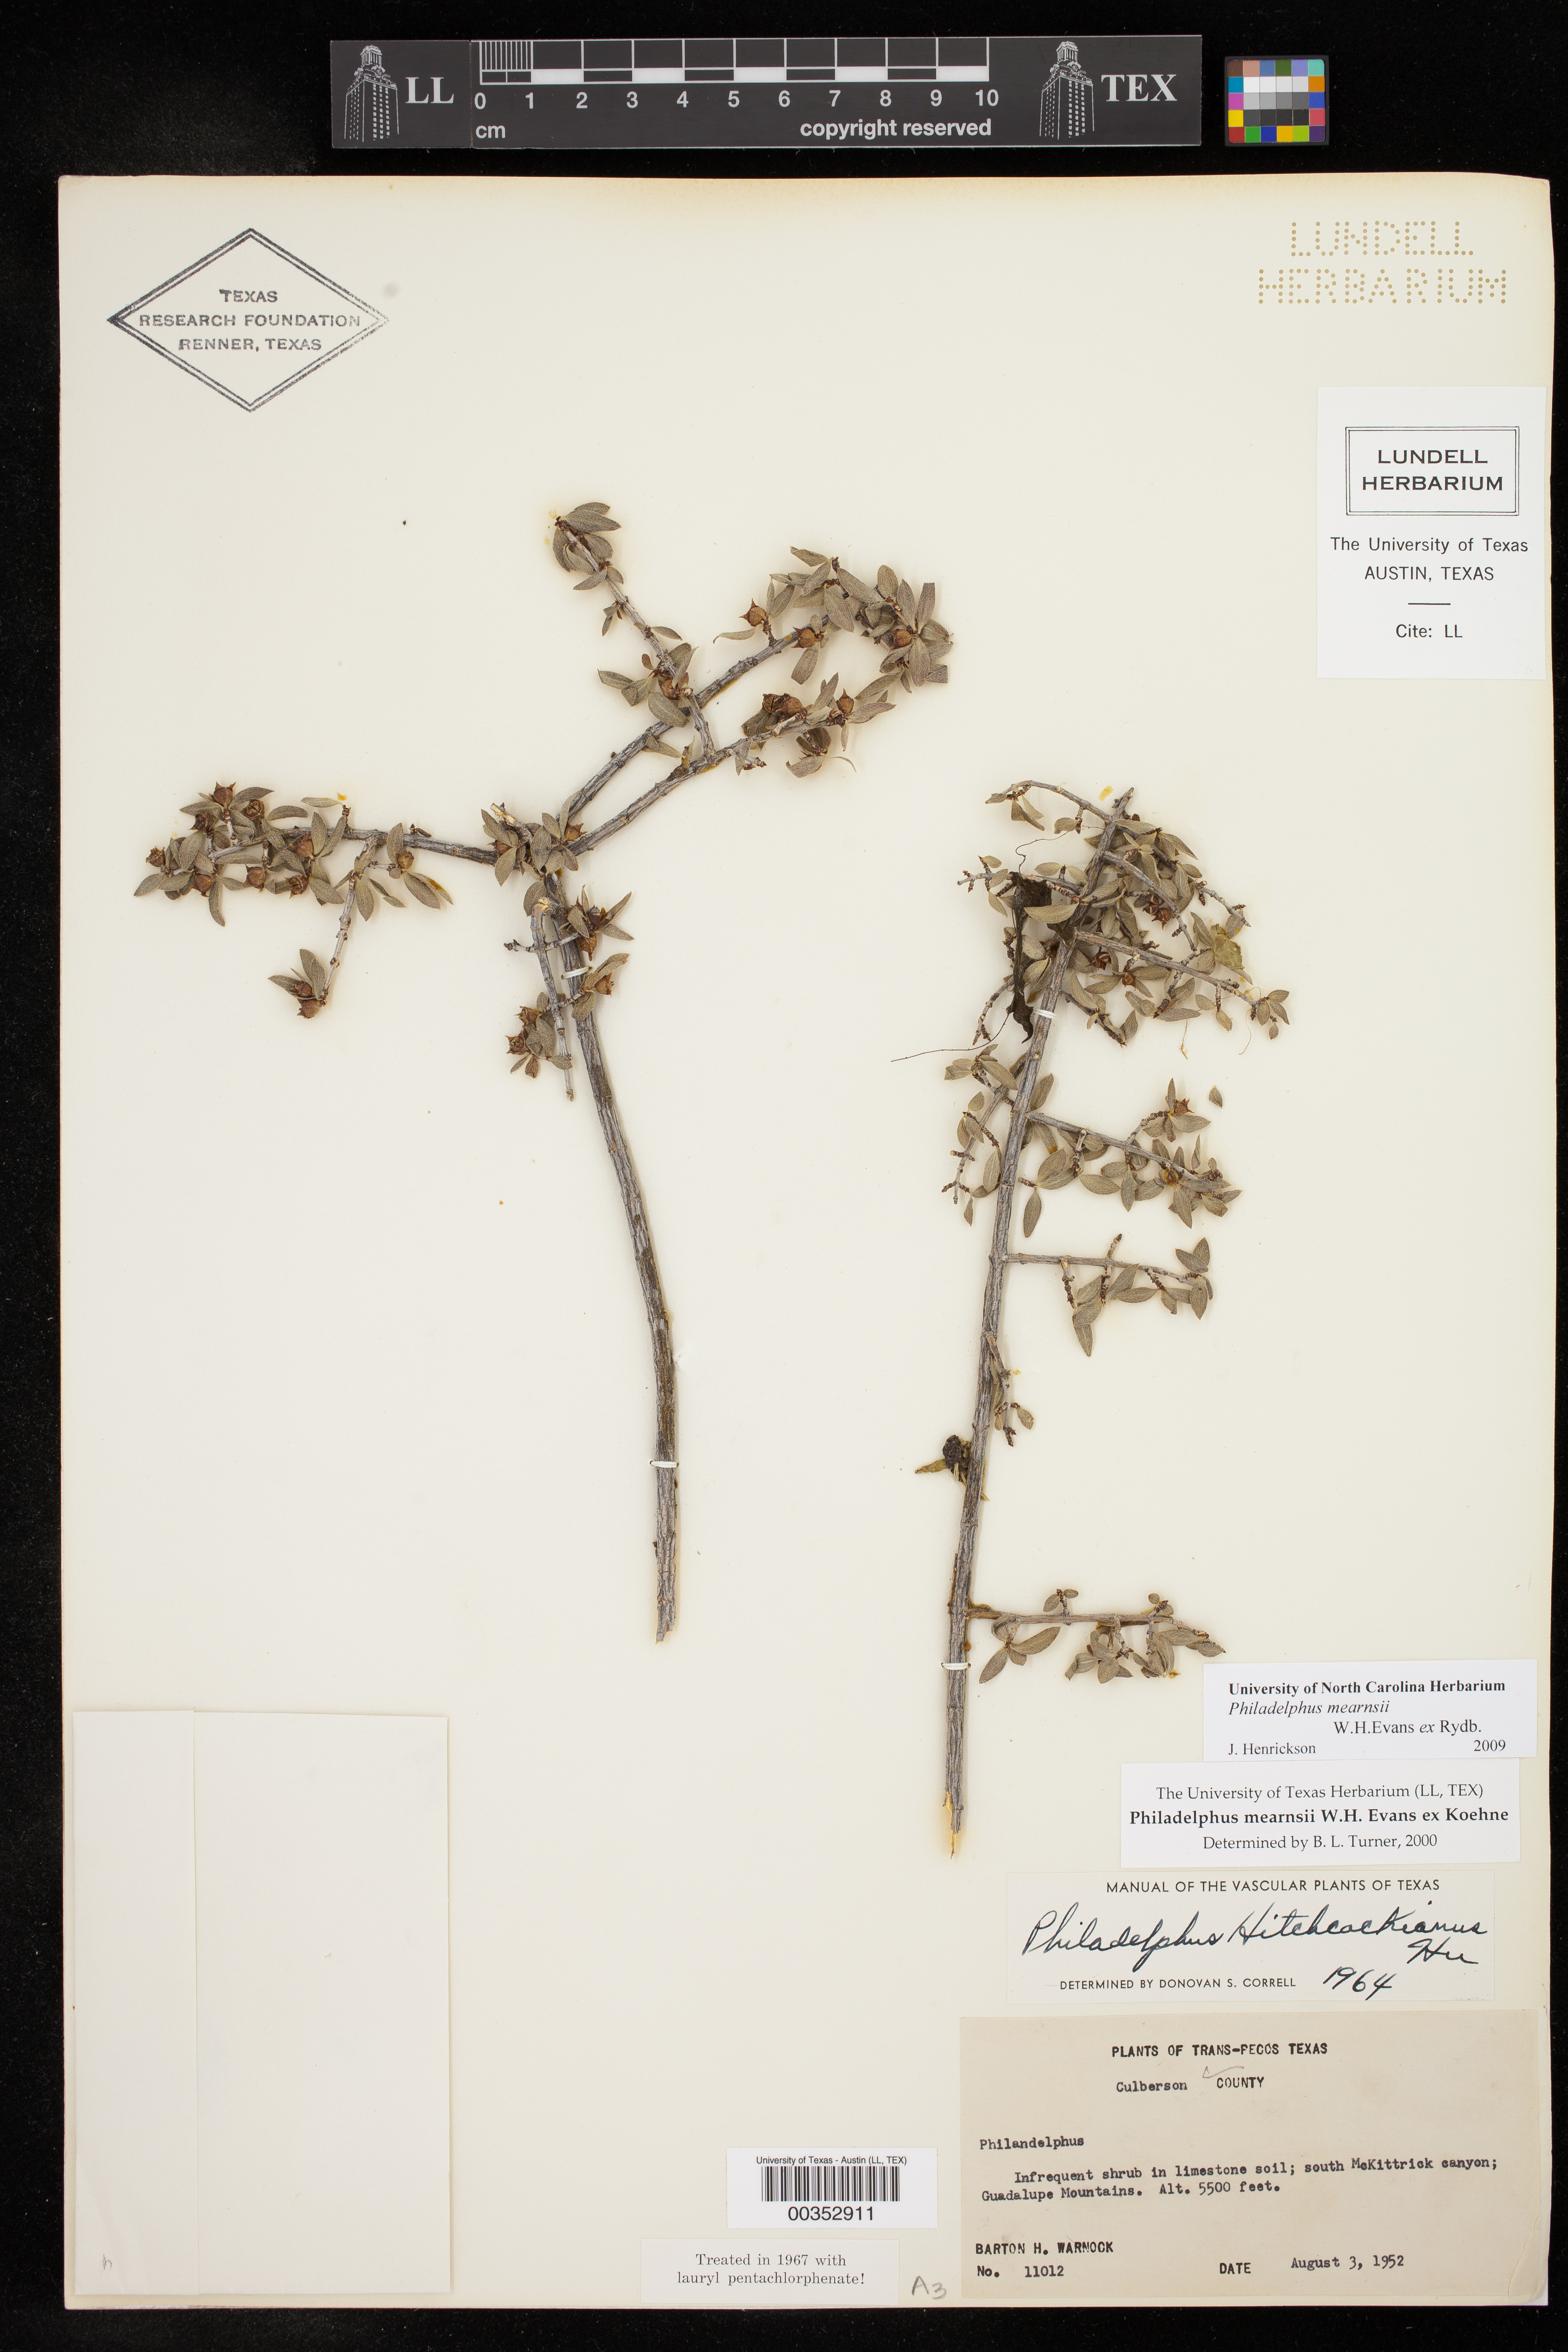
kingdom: Plantae
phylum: Tracheophyta
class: Magnoliopsida
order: Cornales
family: Hydrangeaceae
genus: Philadelphus
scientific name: Philadelphus mearnsii
